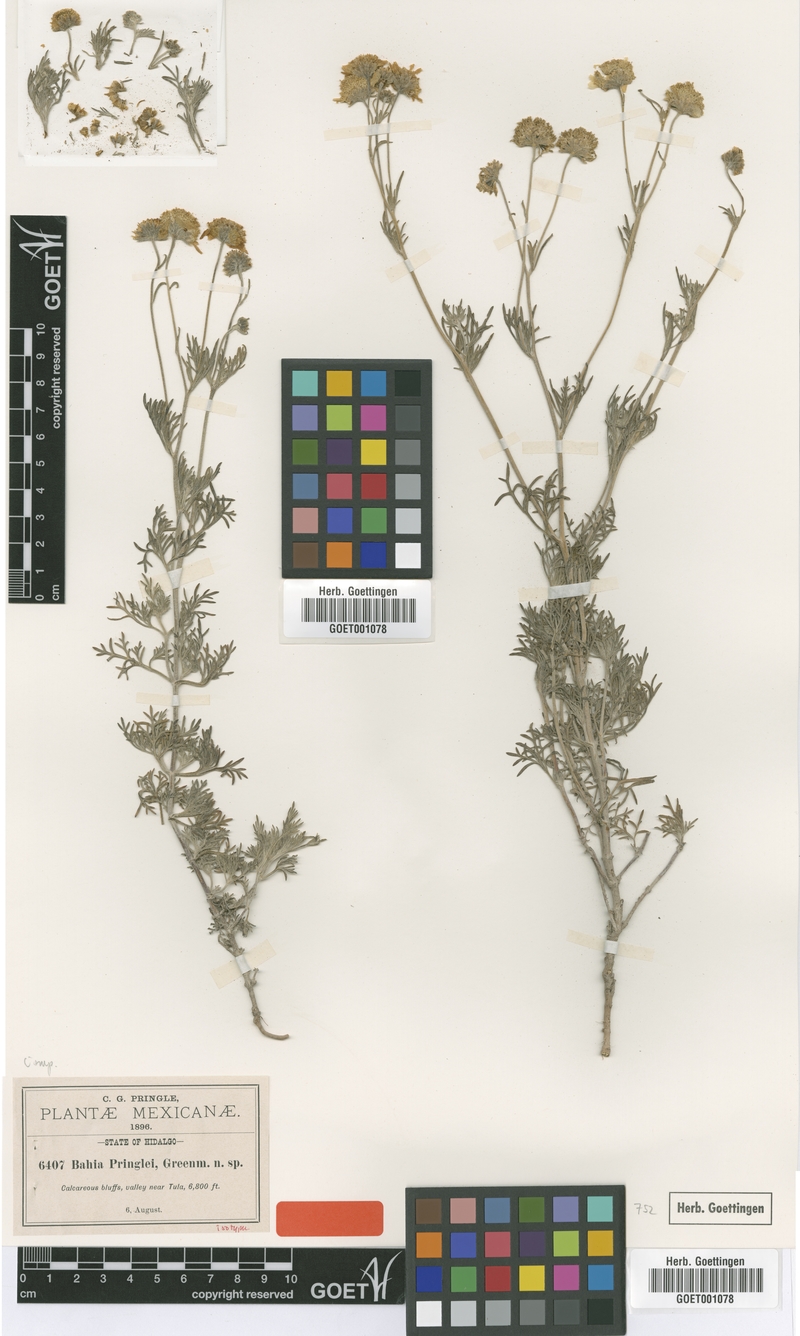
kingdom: Plantae
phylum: Tracheophyta
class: Magnoliopsida
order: Asterales
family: Asteraceae
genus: Picradeniopsis
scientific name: Picradeniopsis pringlei
